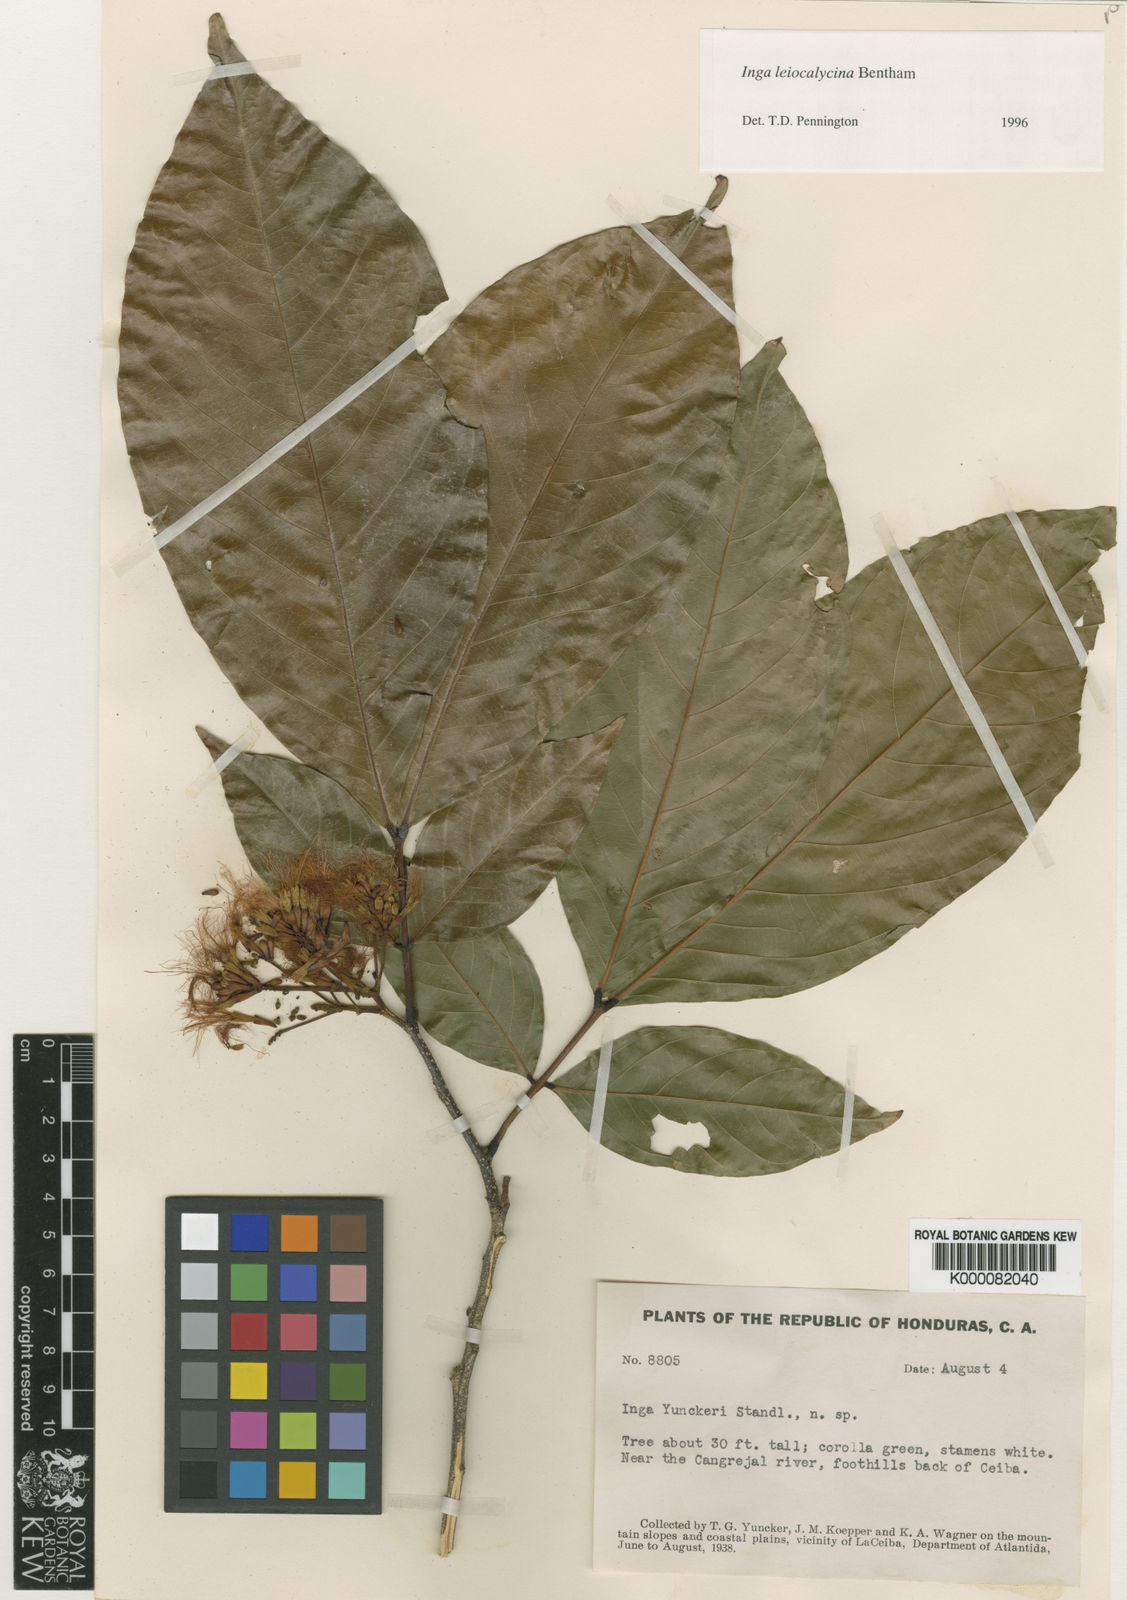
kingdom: Plantae
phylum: Tracheophyta
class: Magnoliopsida
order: Fabales
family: Fabaceae
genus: Inga
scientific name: Inga laevigata
